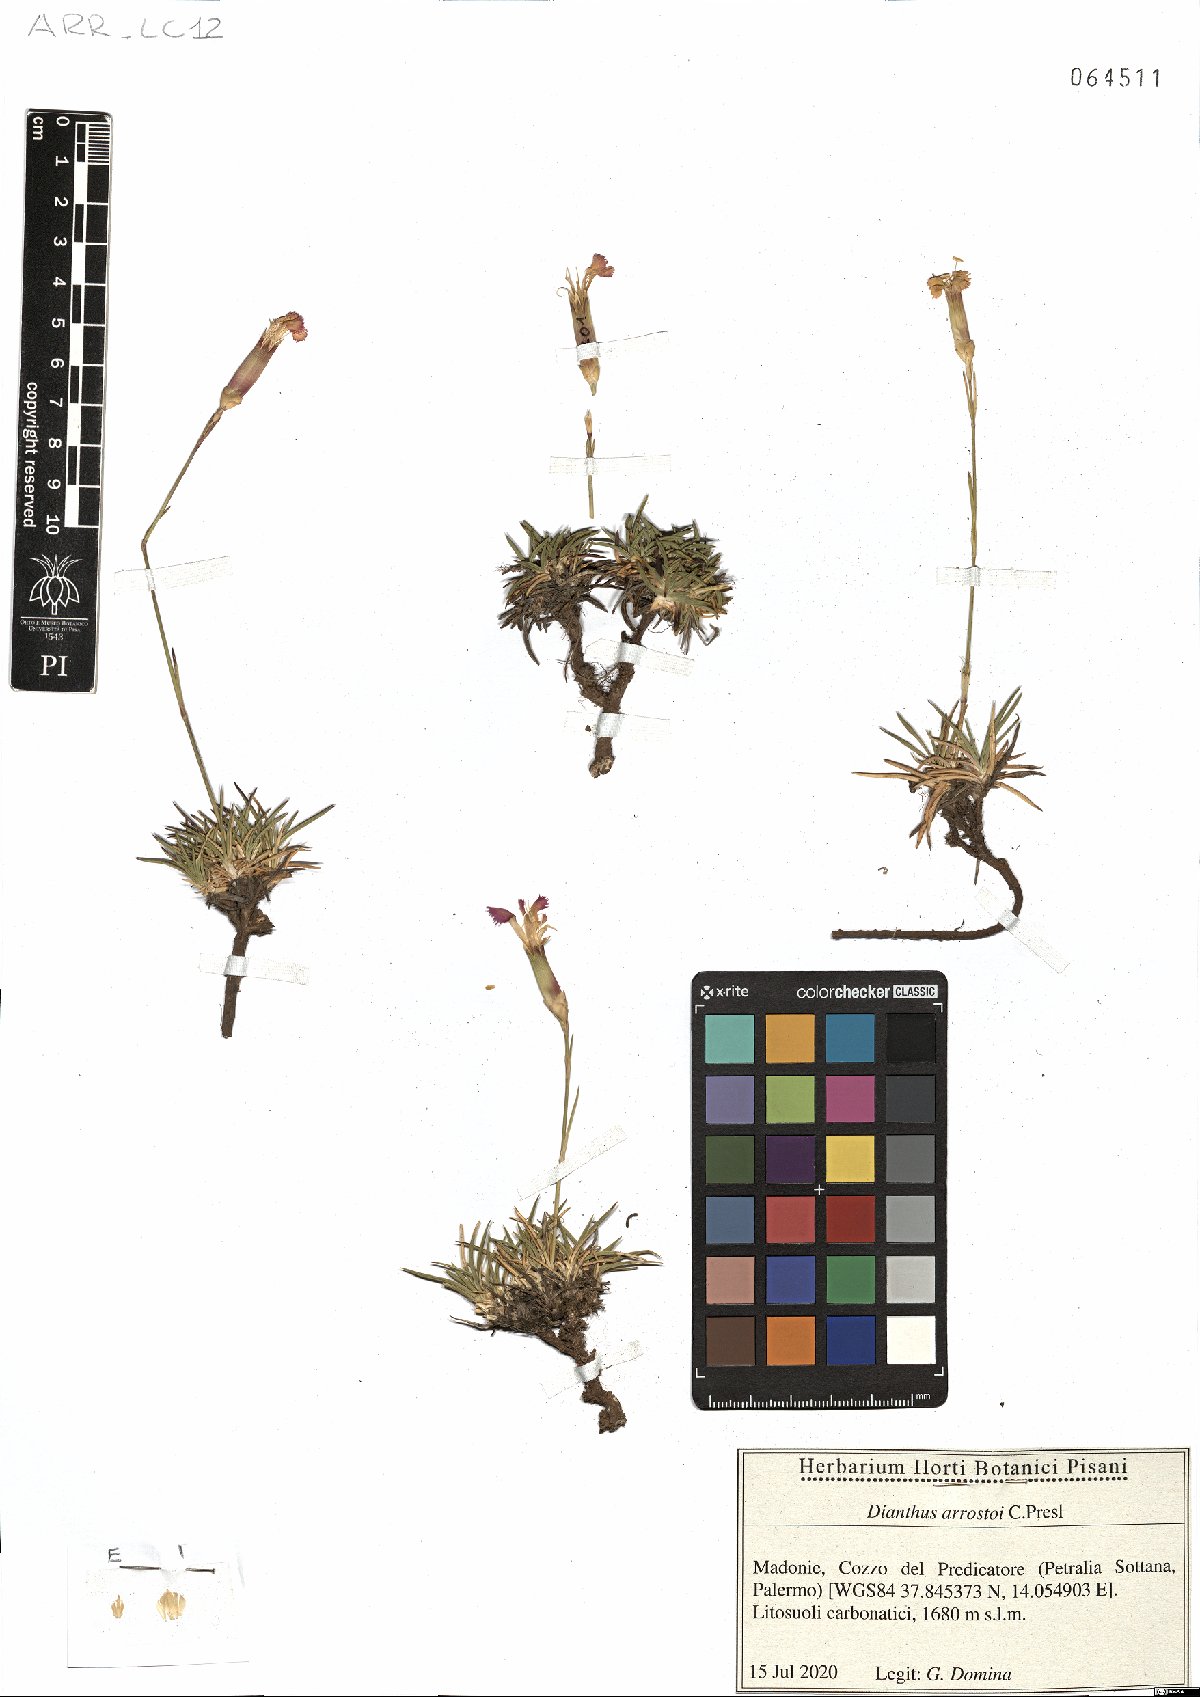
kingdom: Plantae
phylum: Tracheophyta
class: Magnoliopsida
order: Caryophyllales
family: Caryophyllaceae
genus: Dianthus
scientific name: Dianthus arrostoi
